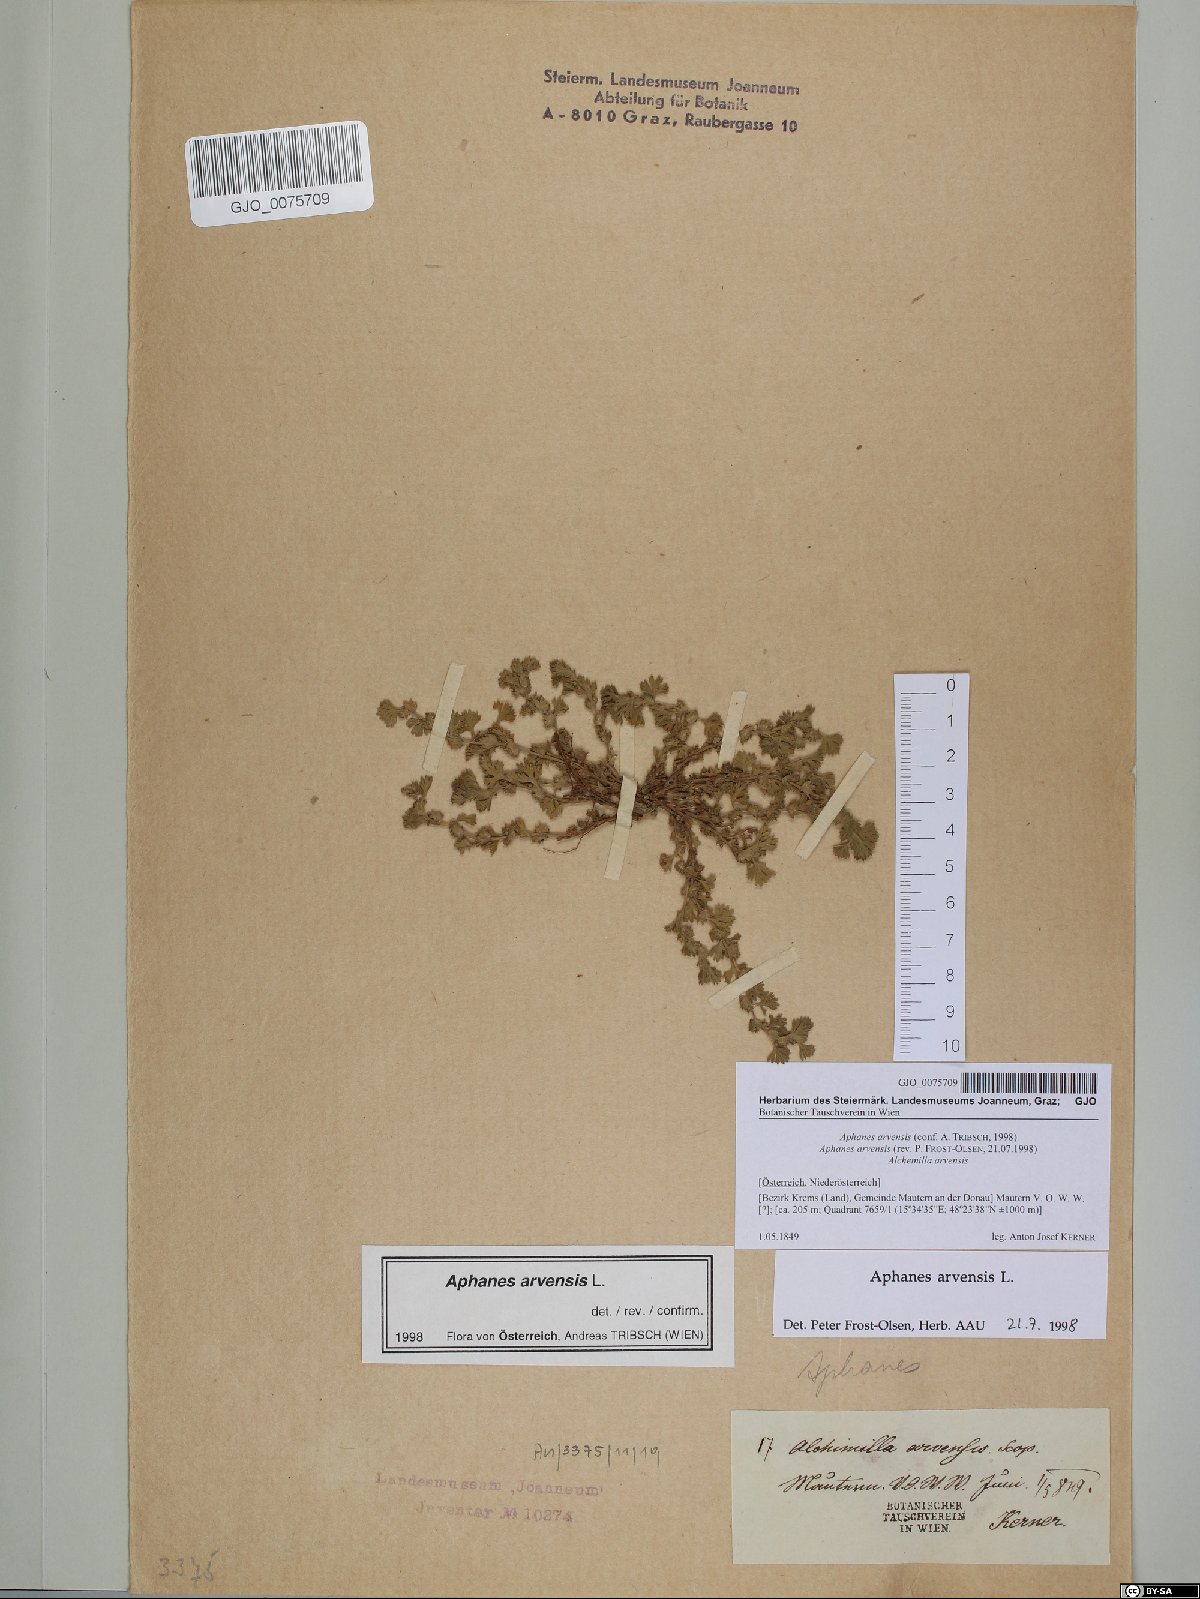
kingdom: Plantae
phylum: Tracheophyta
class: Magnoliopsida
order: Rosales
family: Rosaceae
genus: Aphanes
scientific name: Aphanes arvensis
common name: Parsley-piert
